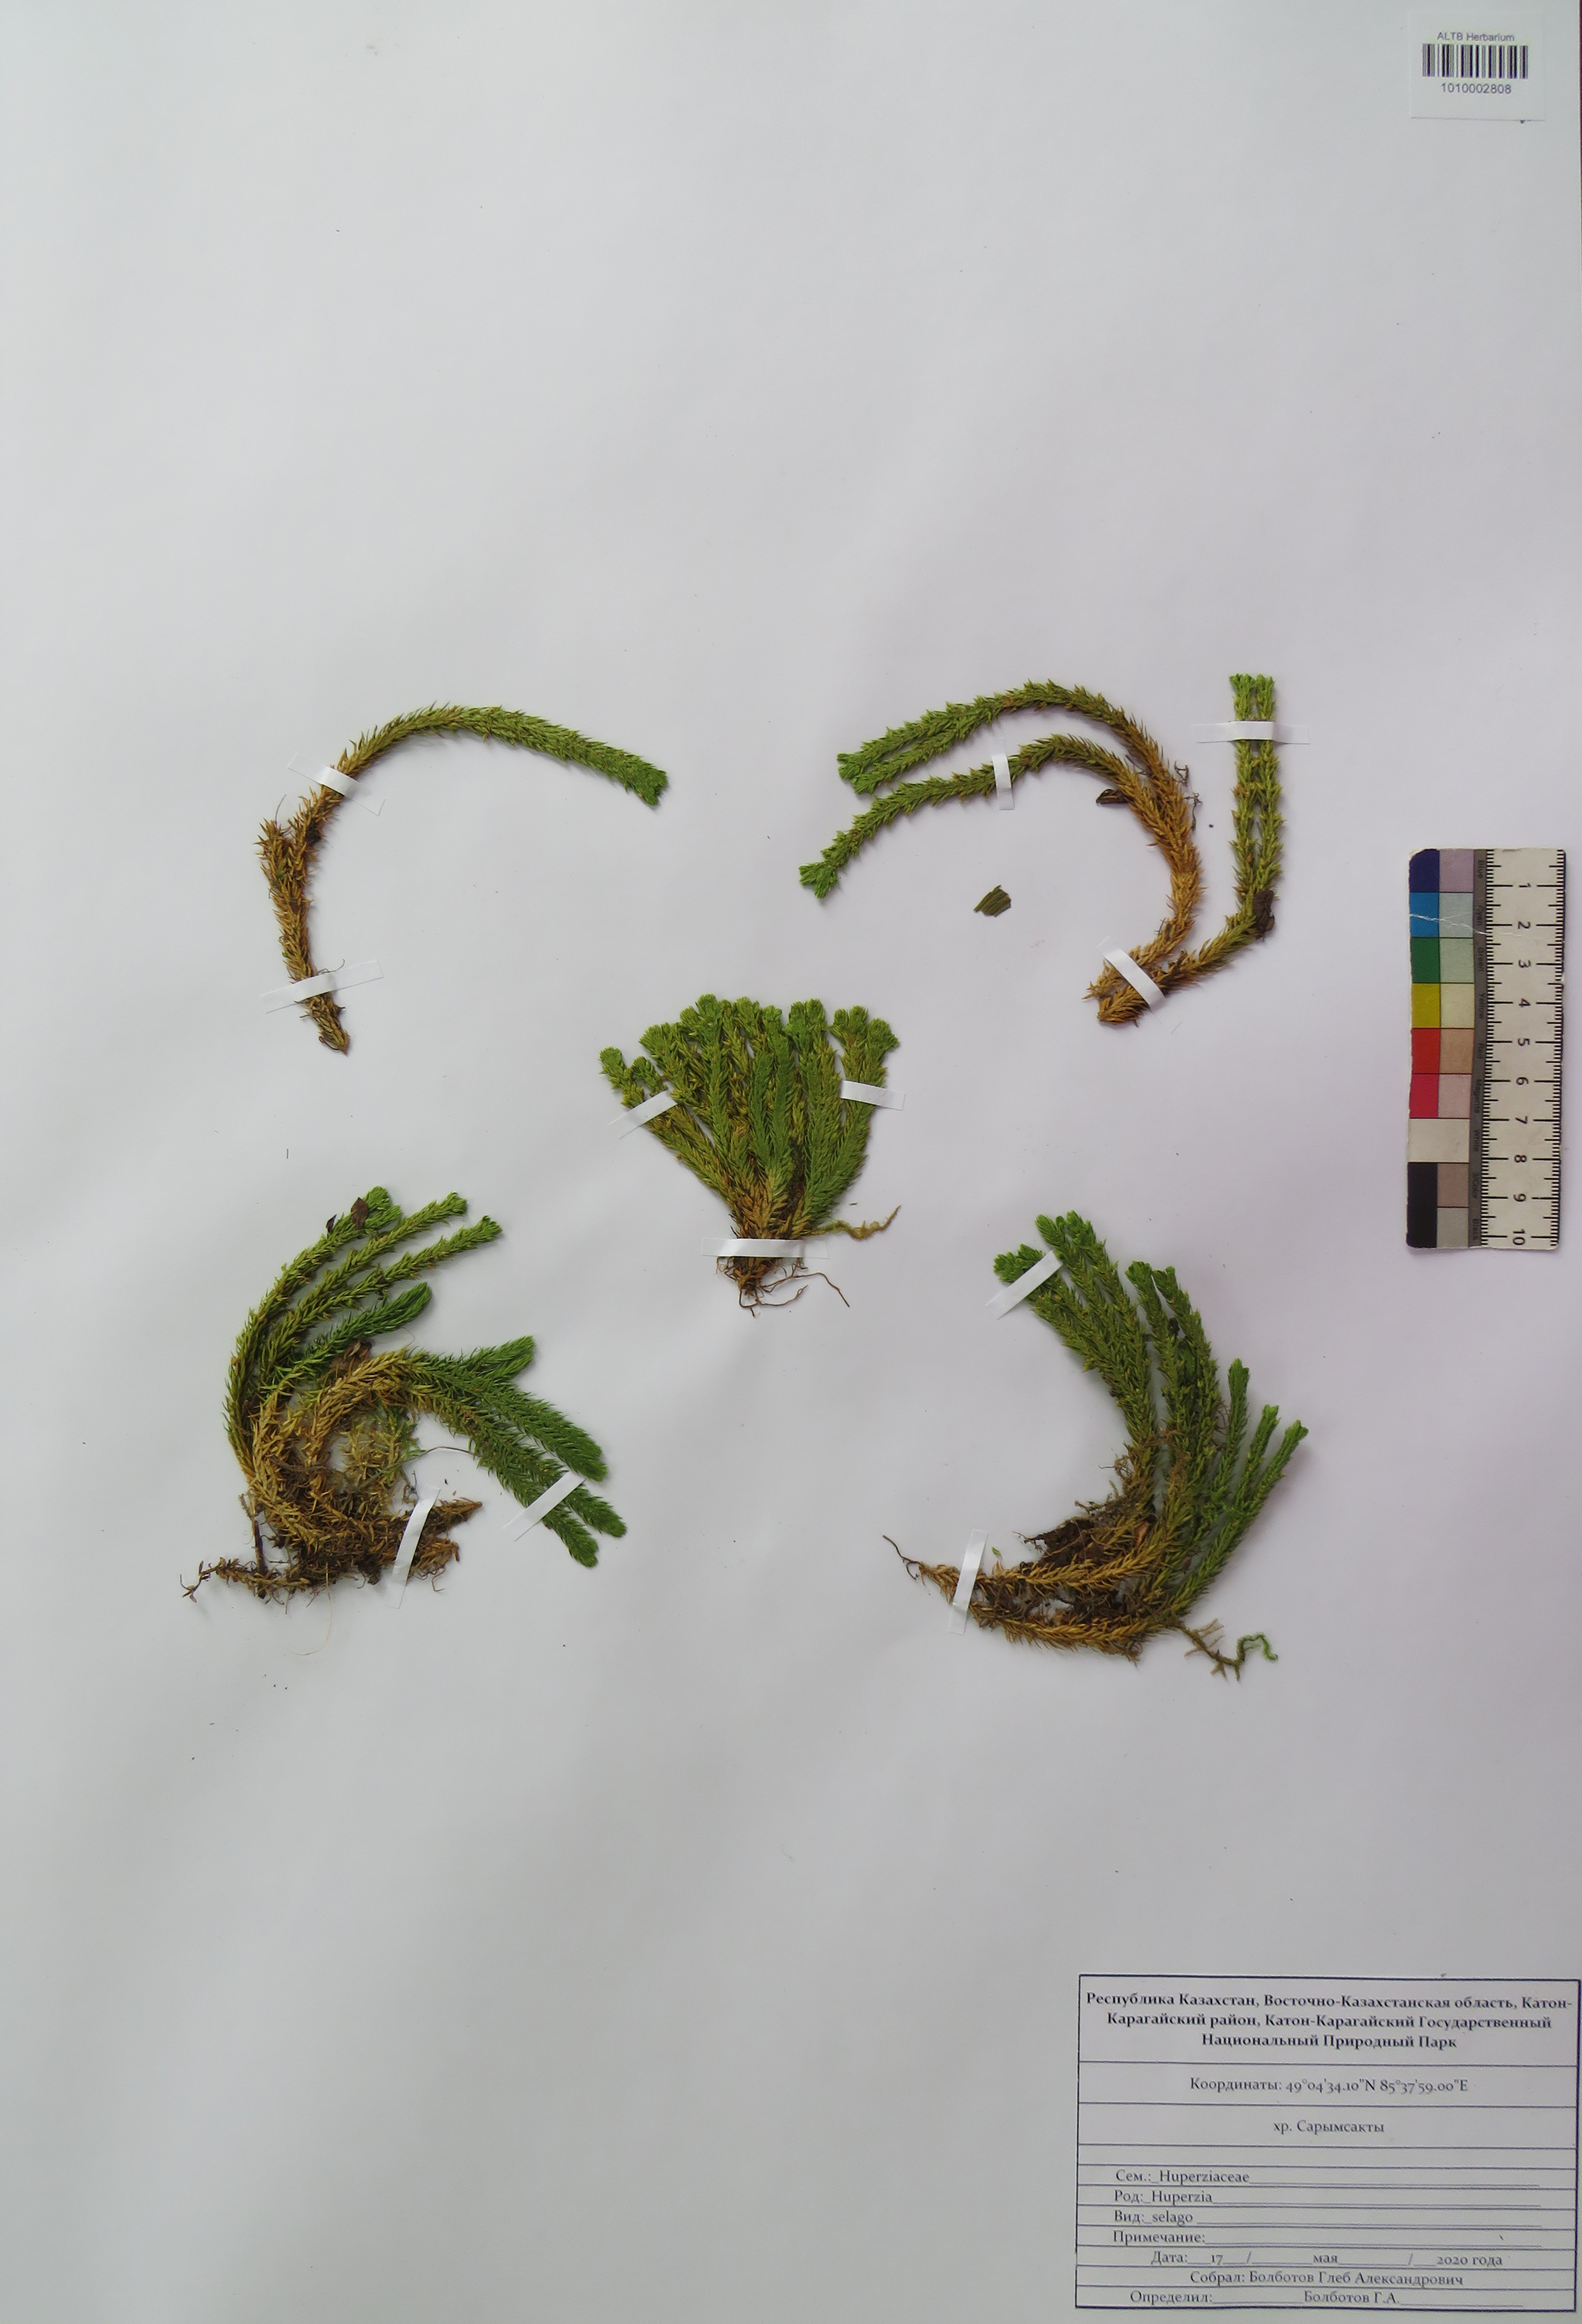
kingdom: Plantae
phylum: Tracheophyta
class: Lycopodiopsida
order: Lycopodiales
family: Lycopodiaceae
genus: Huperzia
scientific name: Huperzia selago
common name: Northern firmoss
